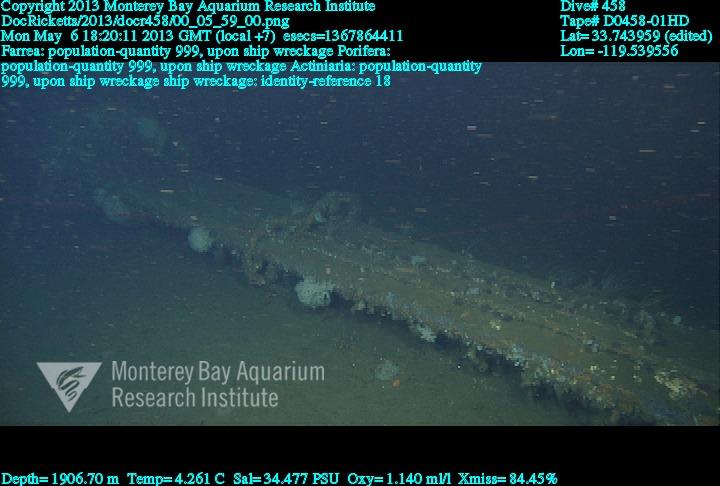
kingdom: Animalia
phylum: Porifera
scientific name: Porifera
